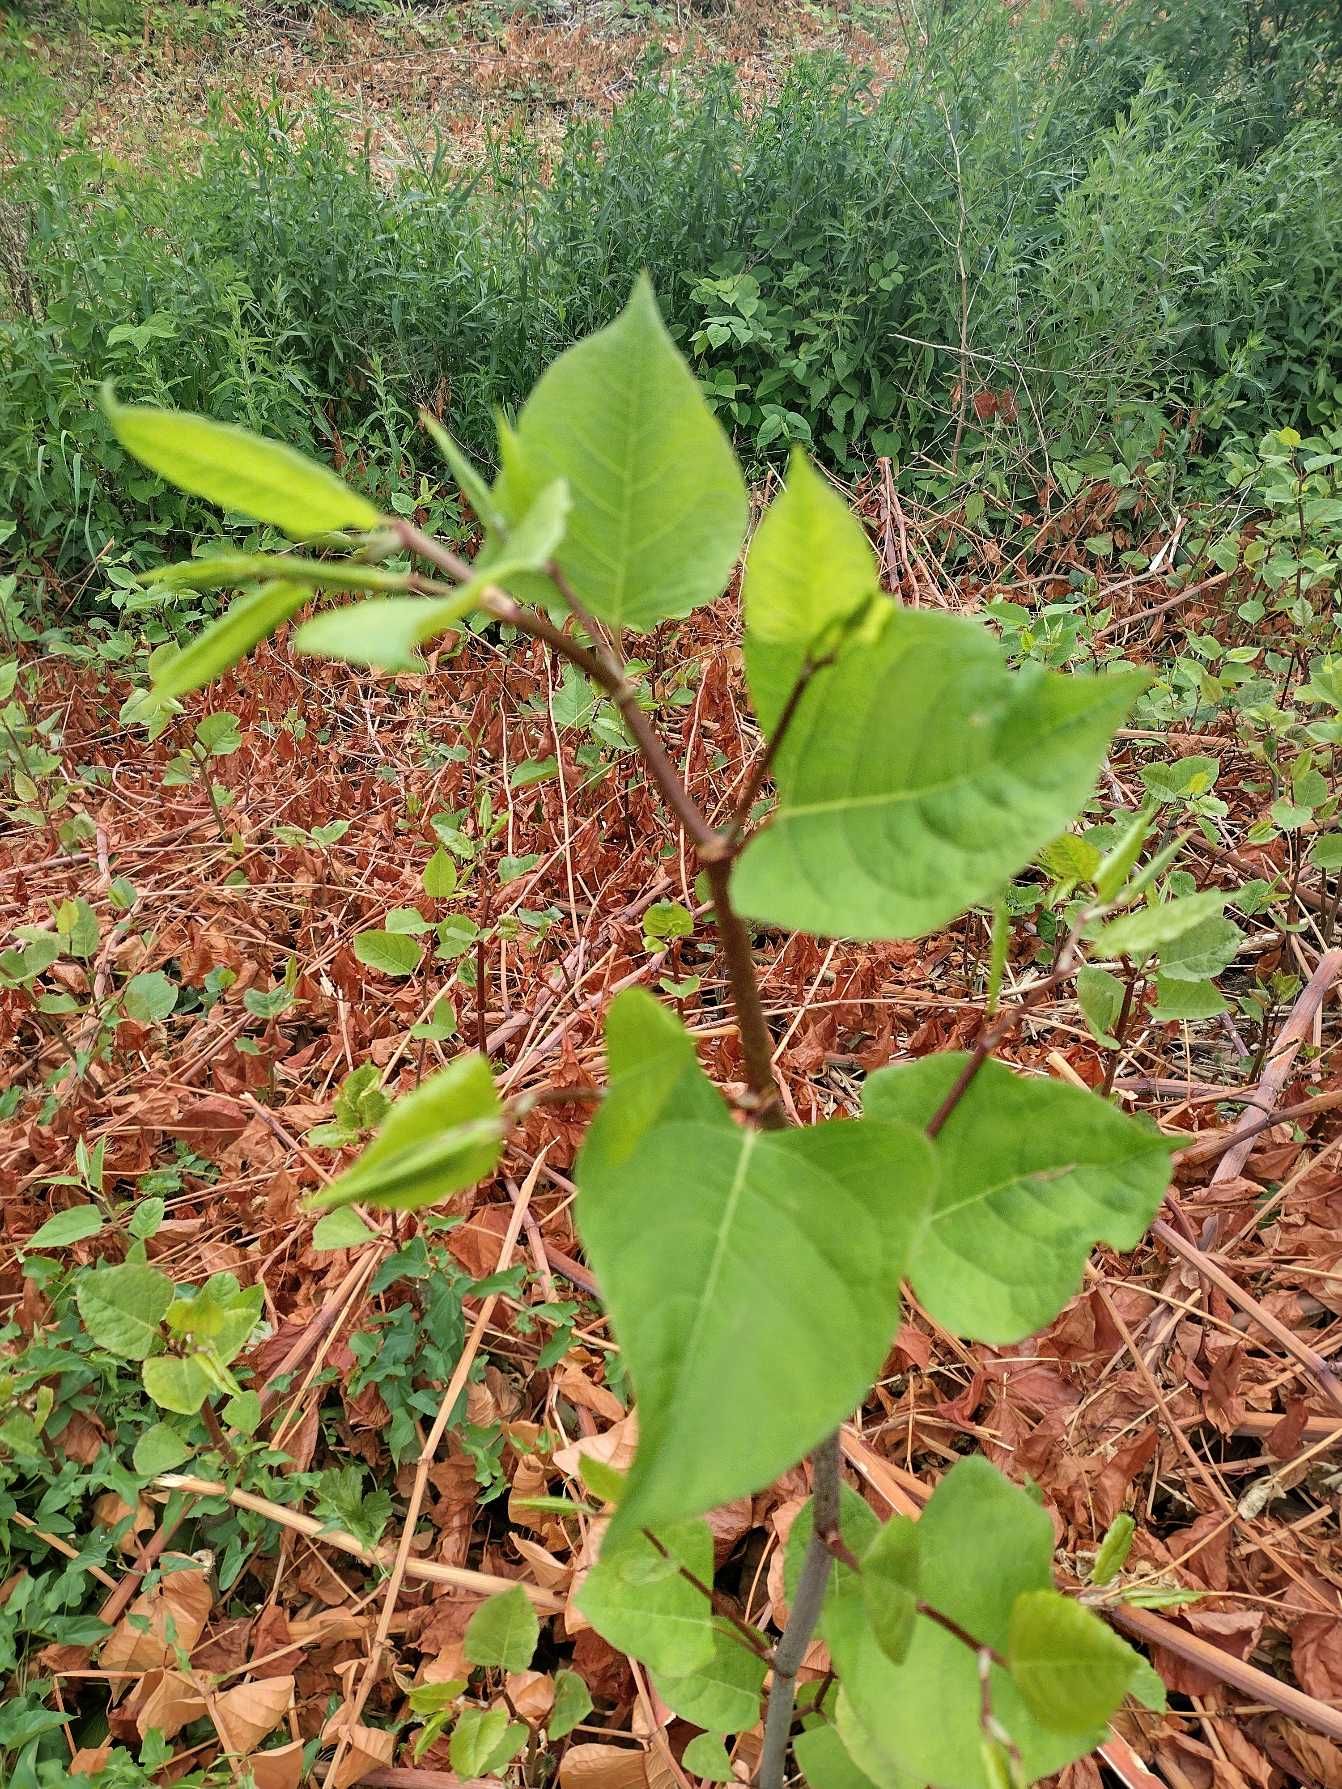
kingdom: Plantae
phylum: Tracheophyta
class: Magnoliopsida
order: Caryophyllales
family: Polygonaceae
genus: Reynoutria
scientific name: Reynoutria japonica
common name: Japan-pileurt
